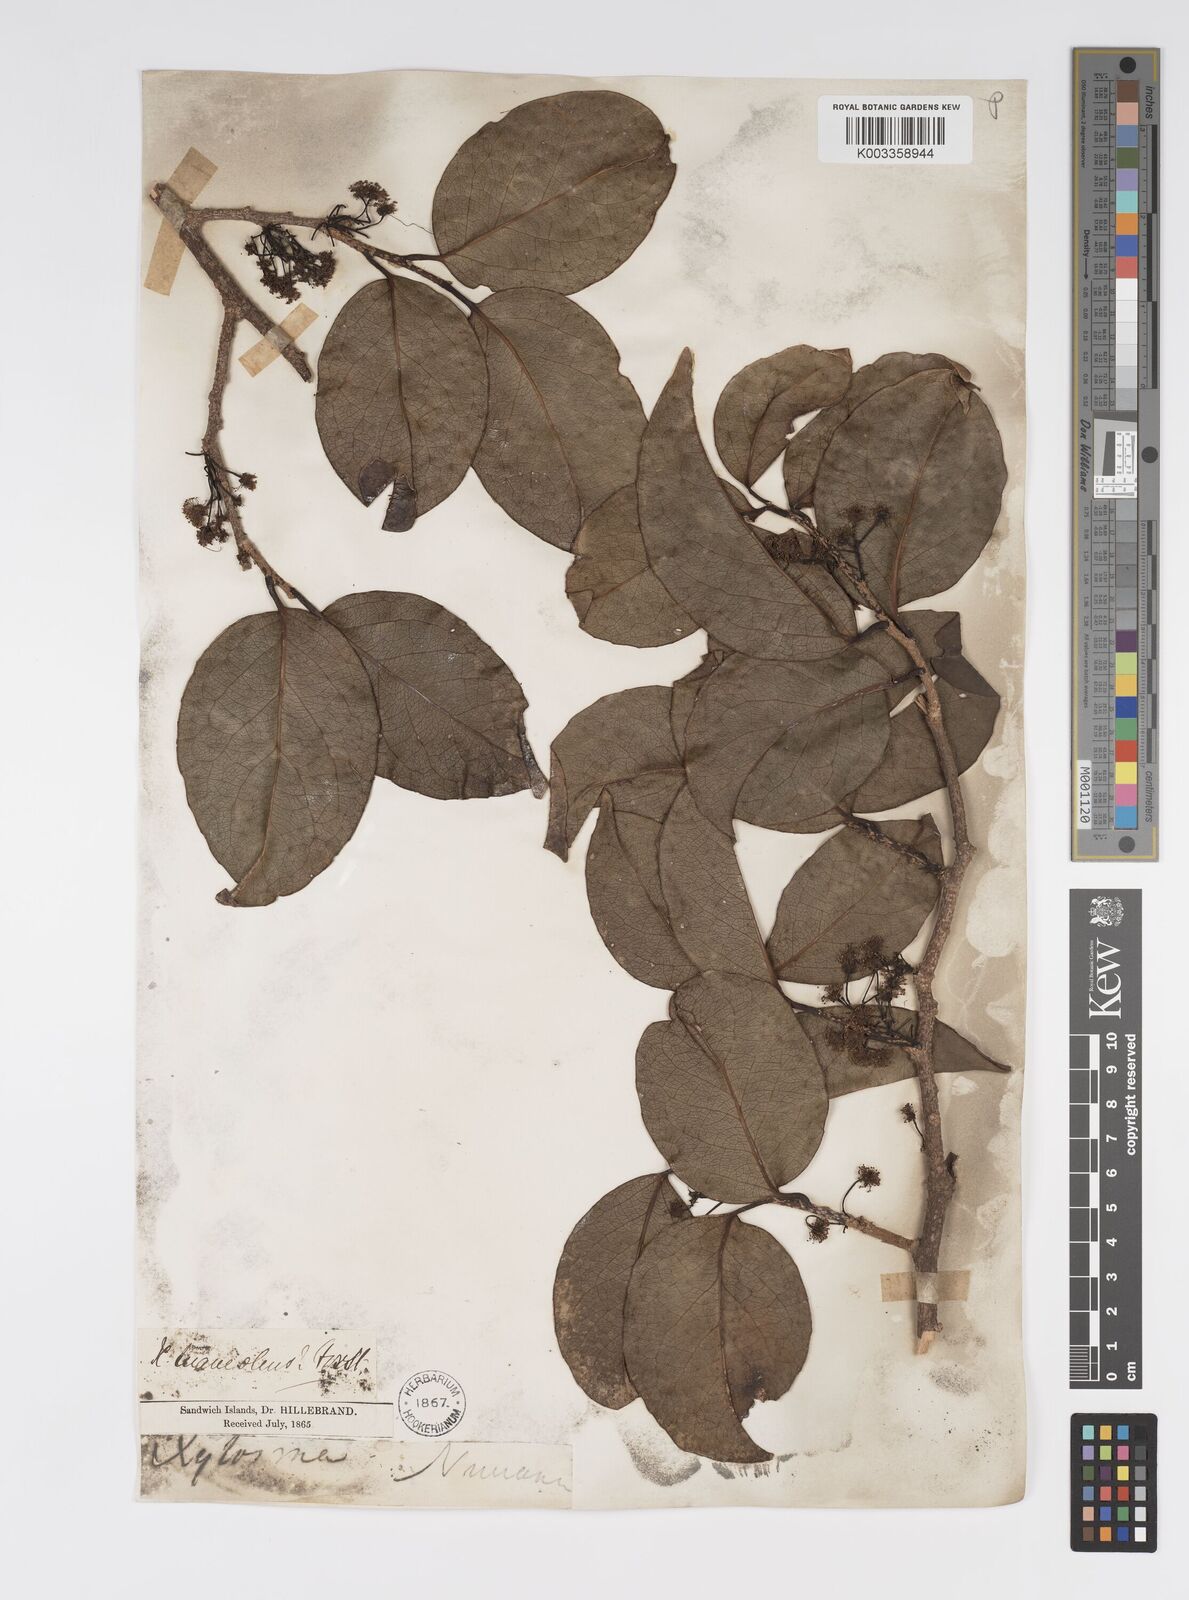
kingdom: Plantae
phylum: Tracheophyta
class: Magnoliopsida
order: Malpighiales
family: Salicaceae
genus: Xylosma
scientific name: Xylosma hawaiense
